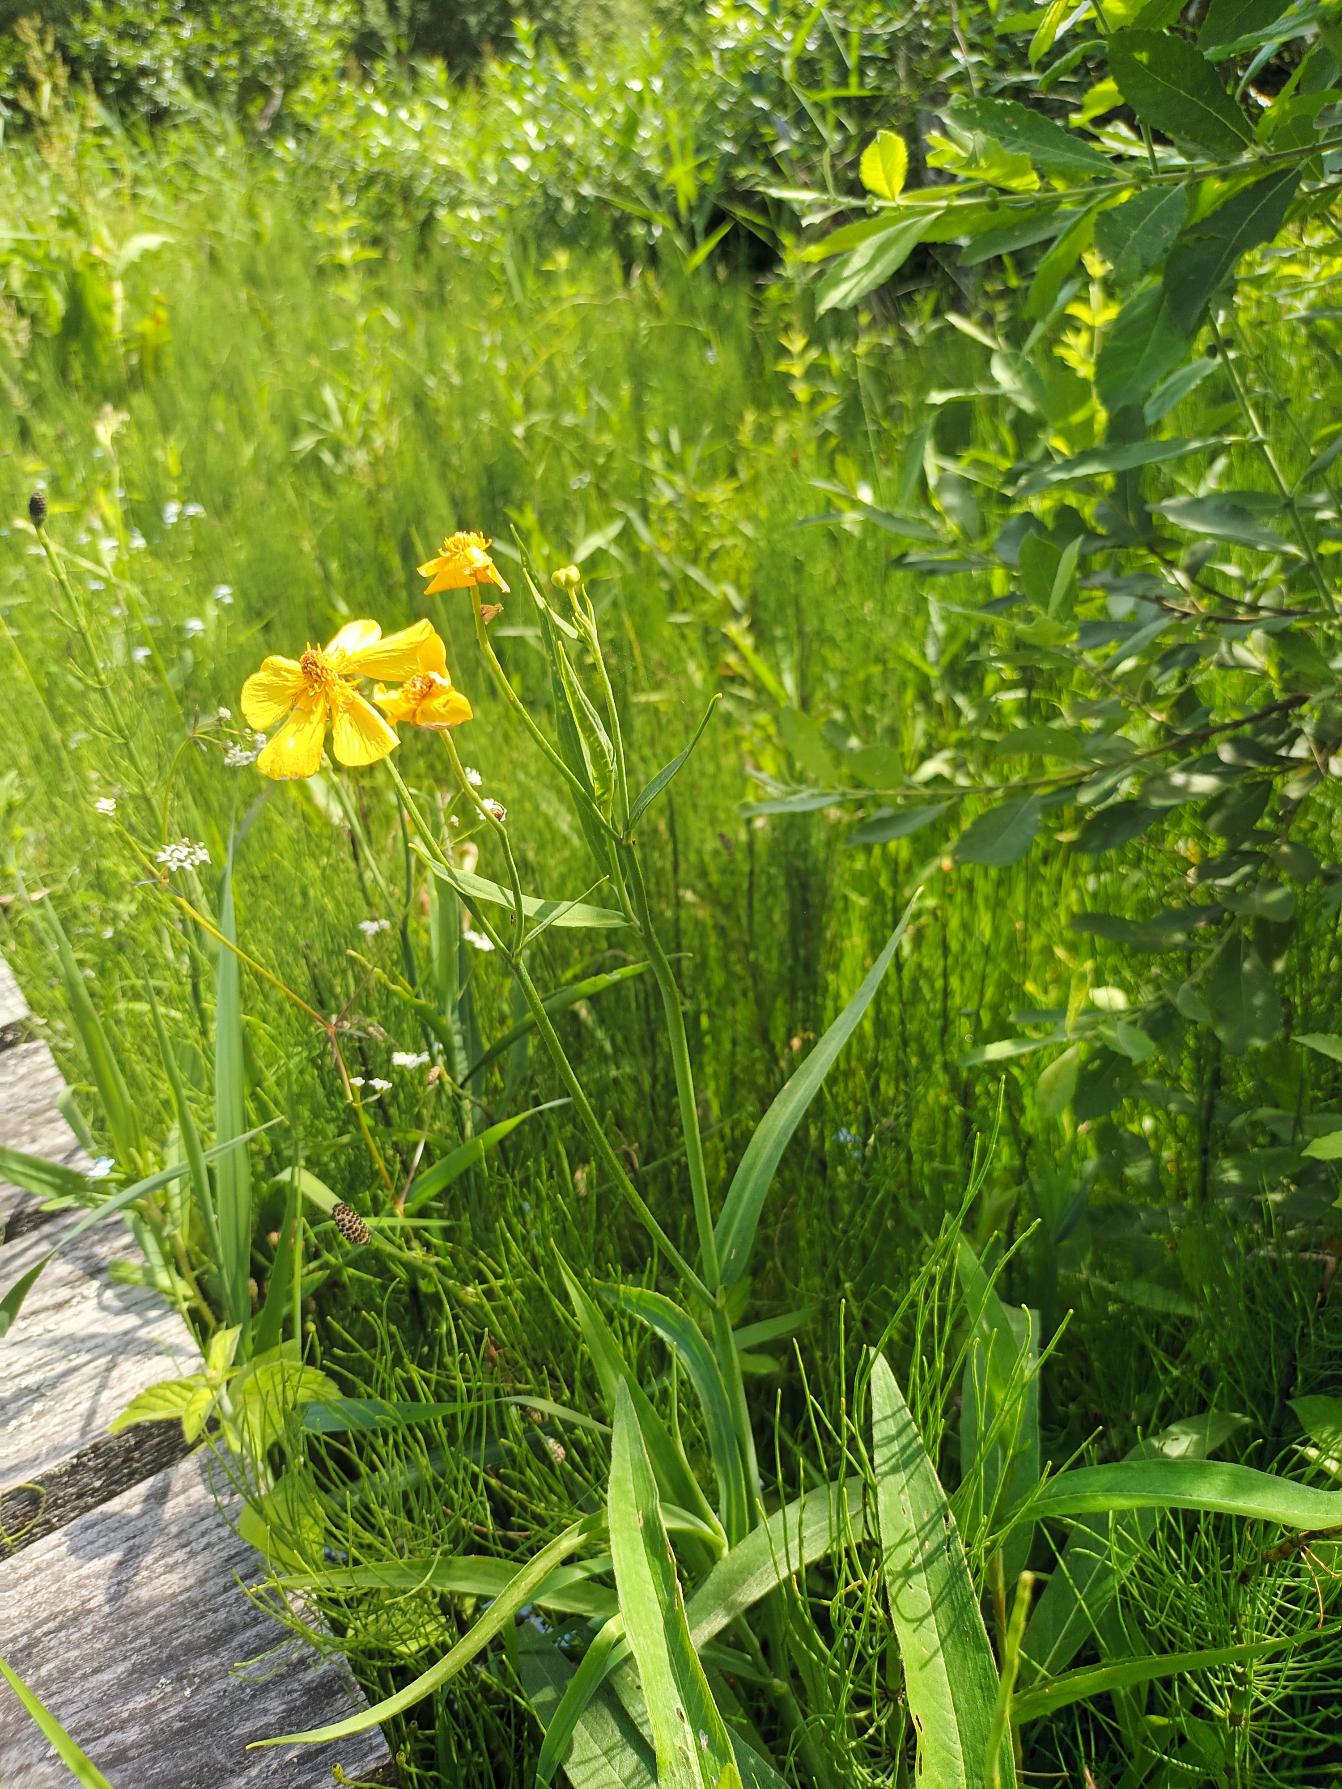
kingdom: Plantae
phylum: Tracheophyta
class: Magnoliopsida
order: Ranunculales
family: Ranunculaceae
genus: Ranunculus
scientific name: Ranunculus lingua
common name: Langbladet ranunkel
